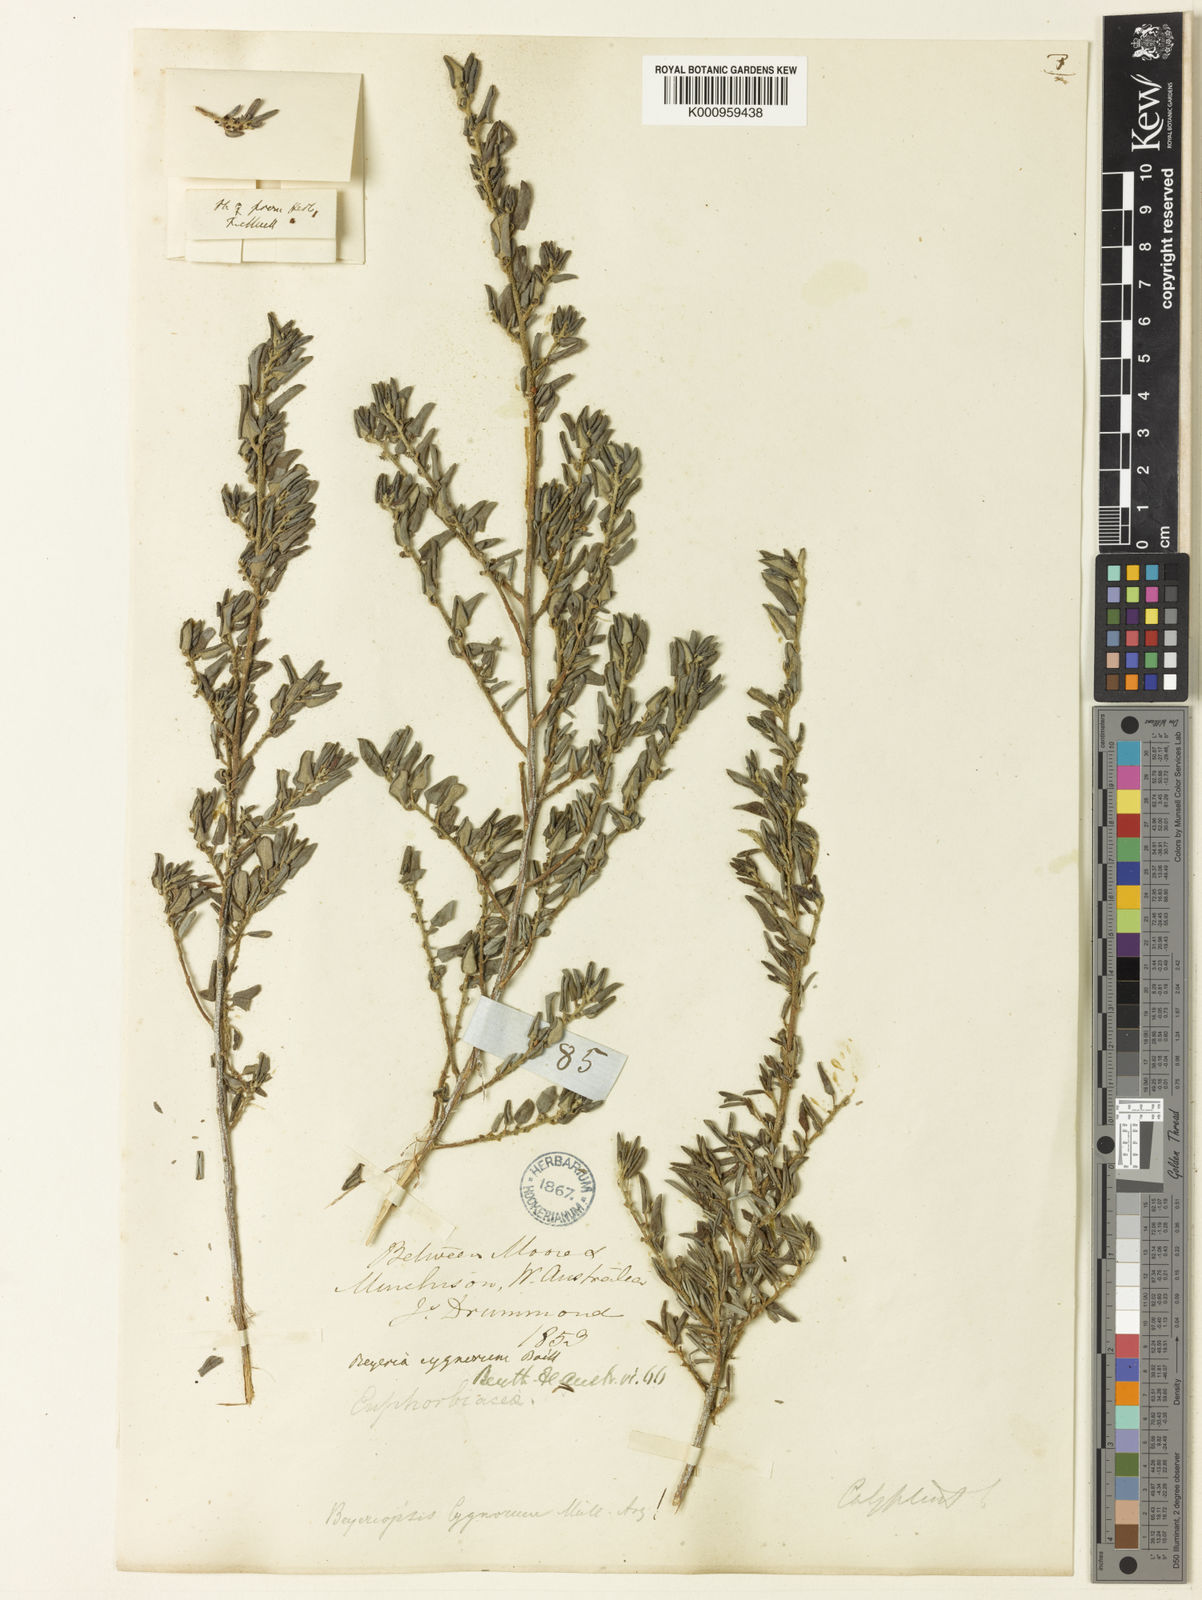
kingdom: Plantae
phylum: Tracheophyta
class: Magnoliopsida
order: Malpighiales
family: Euphorbiaceae
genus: Beyeria
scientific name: Beyeria
